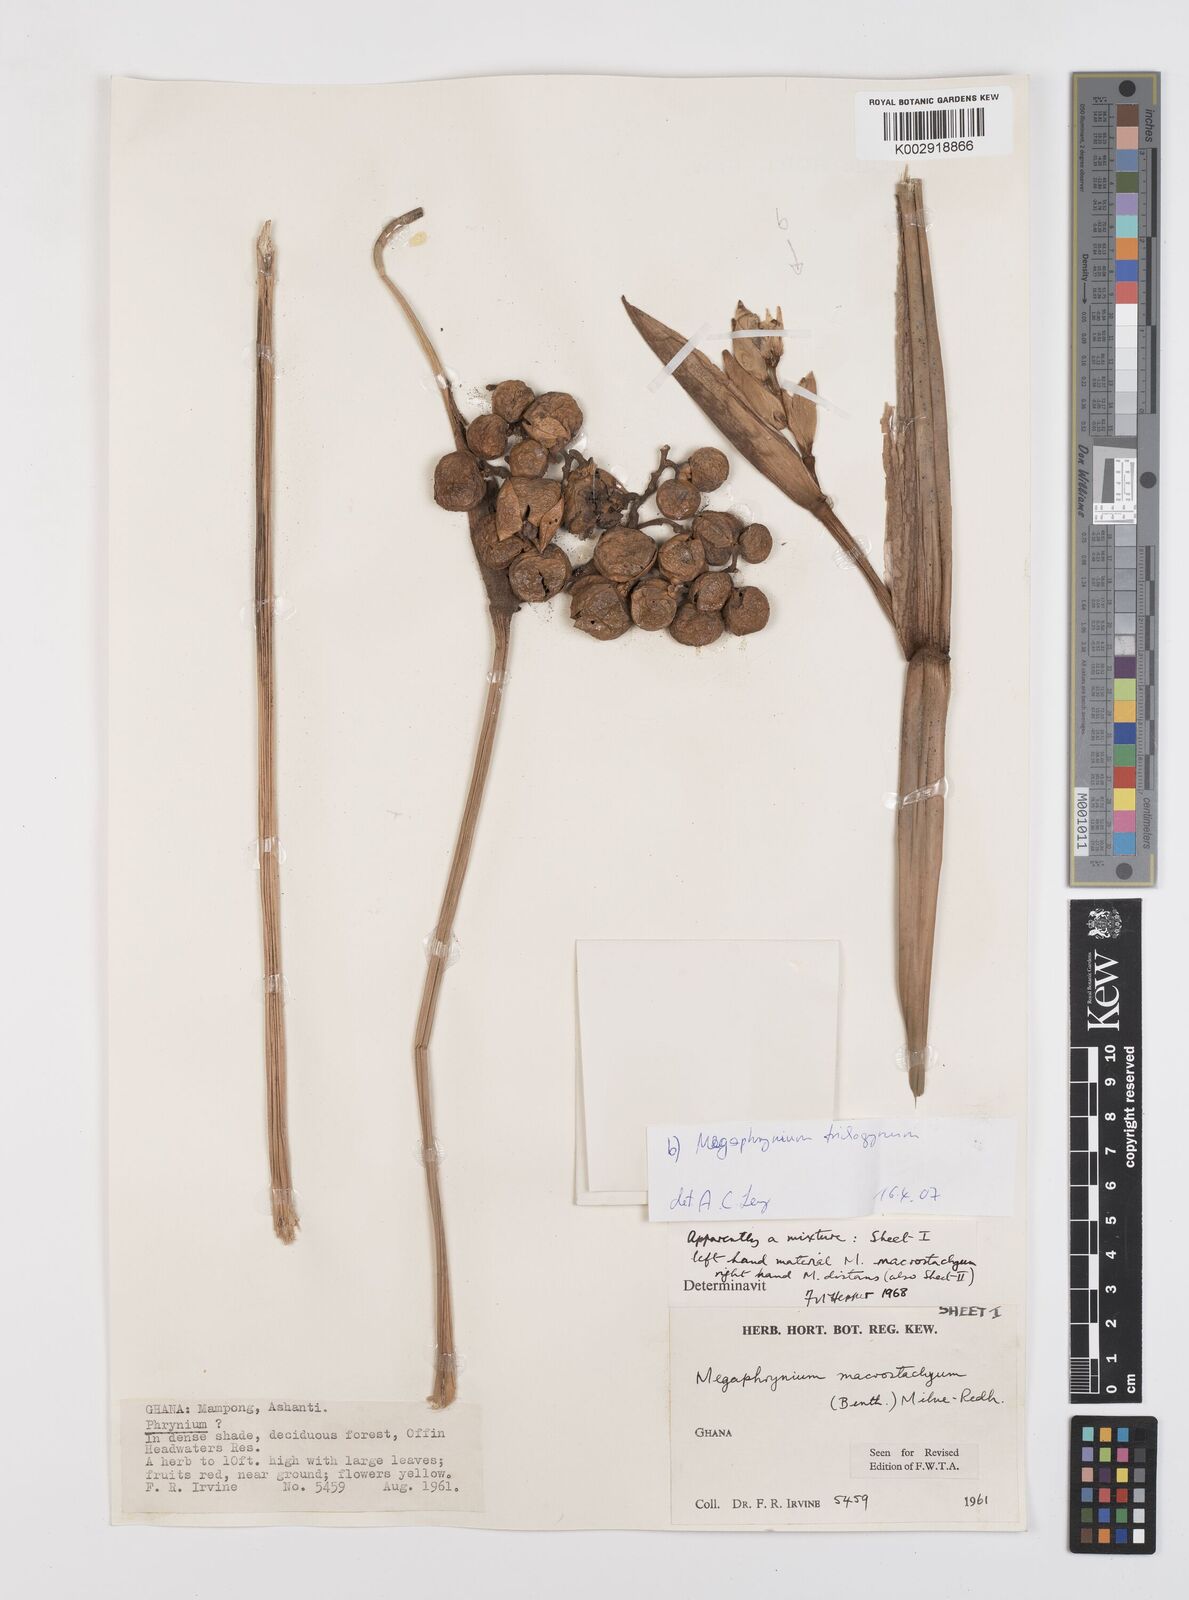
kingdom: Plantae
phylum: Tracheophyta
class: Liliopsida
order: Zingiberales
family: Marantaceae
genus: Megaphrynium
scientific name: Megaphrynium macrostachyum
